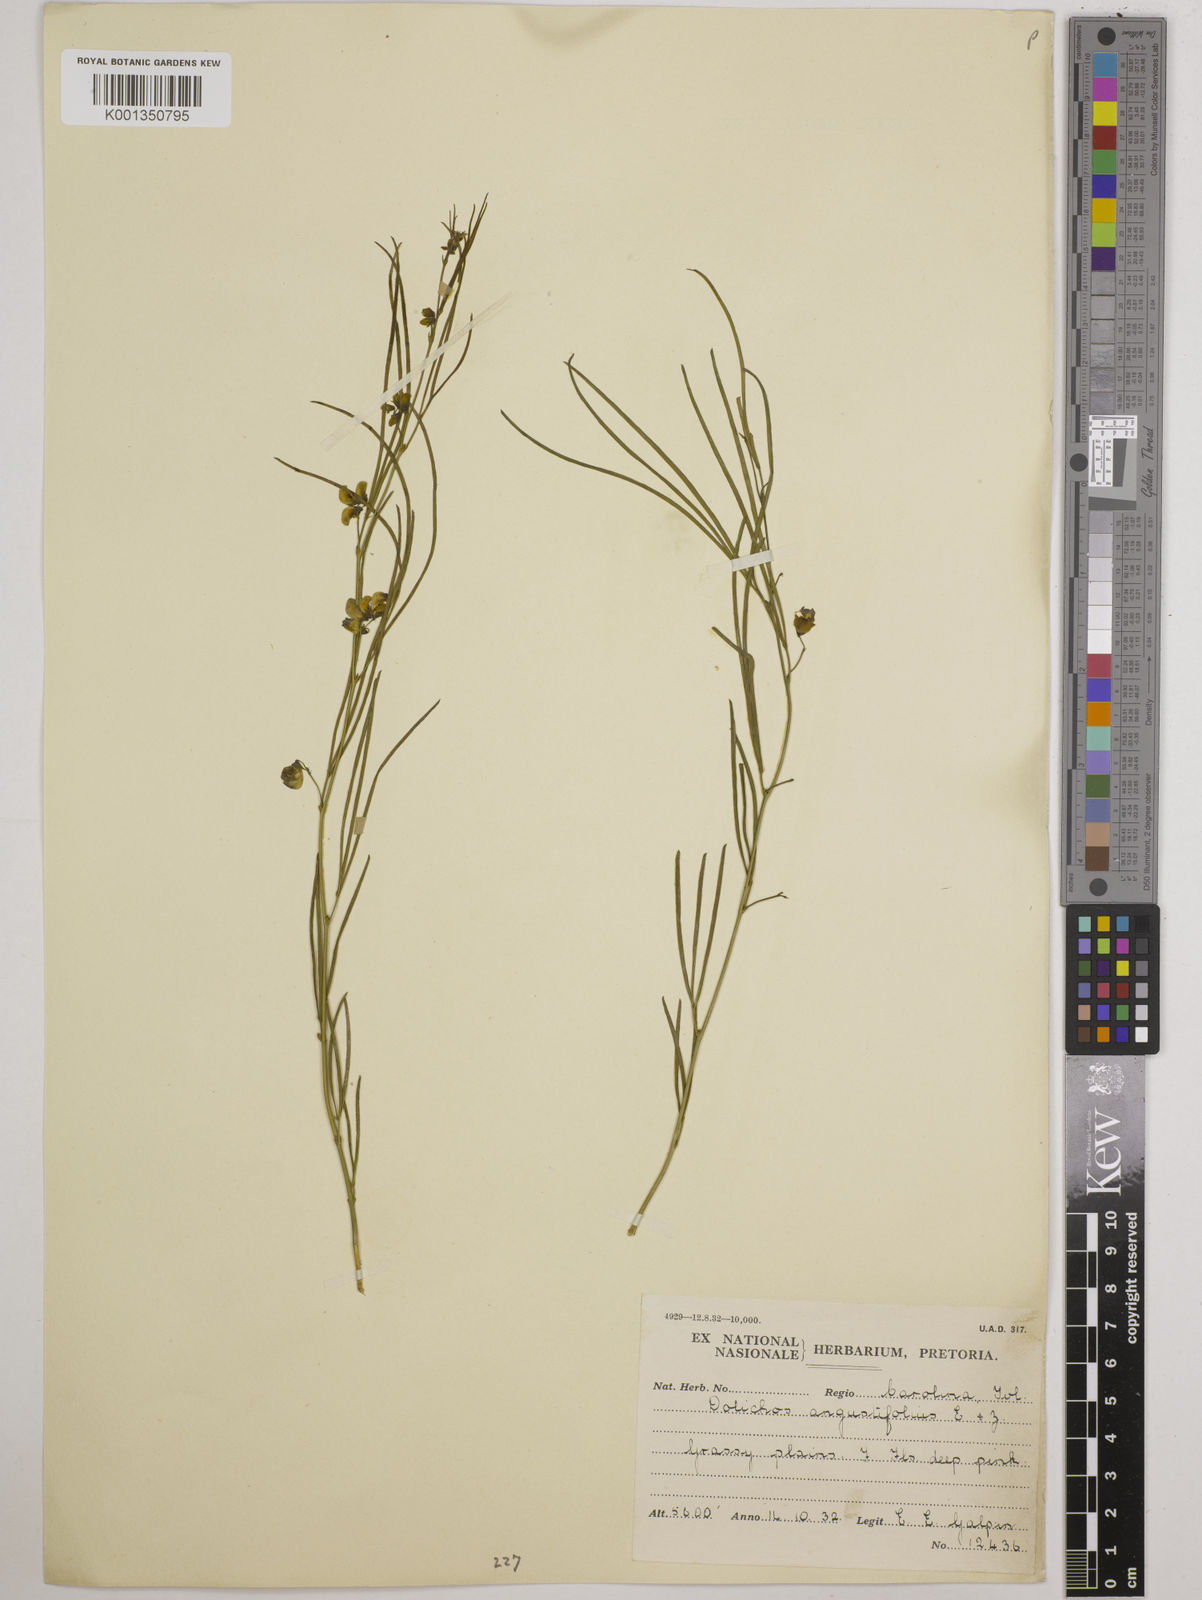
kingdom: Plantae
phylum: Tracheophyta
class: Magnoliopsida
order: Fabales
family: Fabaceae
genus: Dolichos
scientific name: Dolichos
